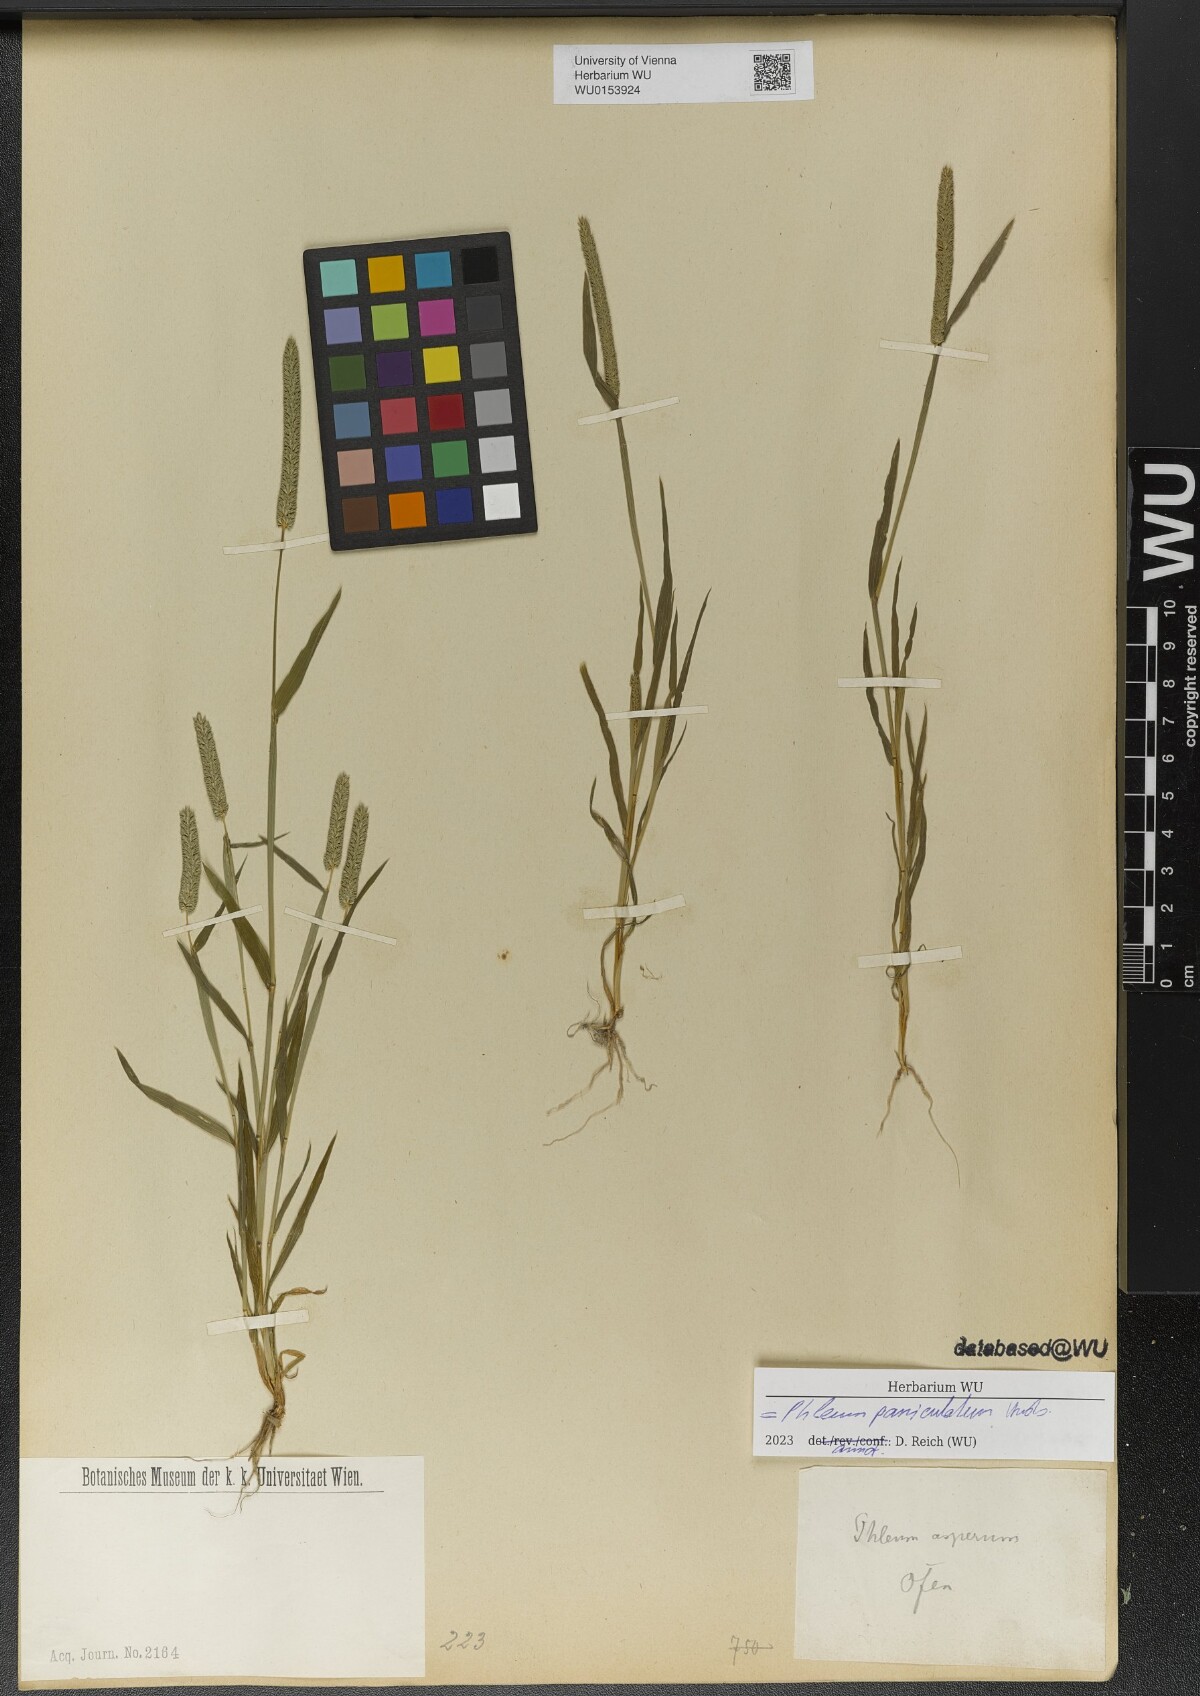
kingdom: Plantae
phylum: Tracheophyta
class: Liliopsida
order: Poales
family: Poaceae
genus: Phleum
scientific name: Phleum paniculatum
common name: British timothy
